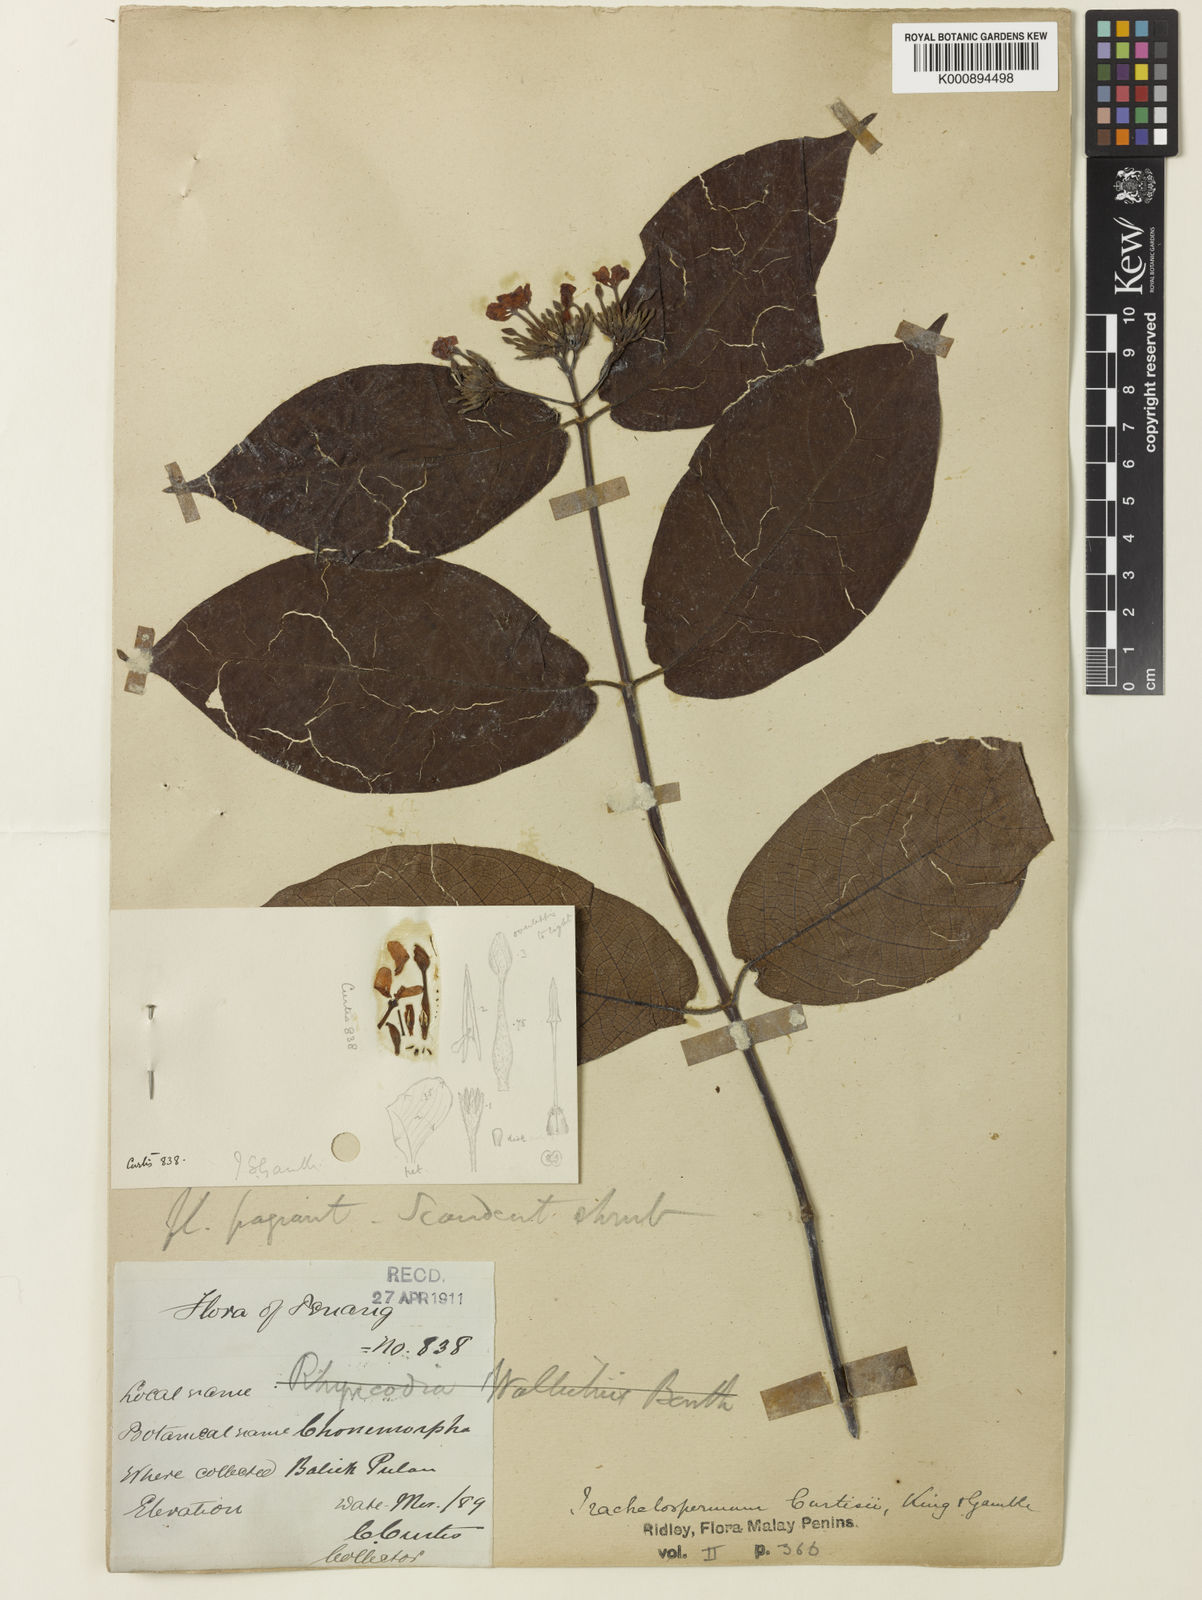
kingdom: Plantae
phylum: Tracheophyta
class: Magnoliopsida
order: Gentianales
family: Apocynaceae
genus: Epigynum
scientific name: Epigynum auritum
